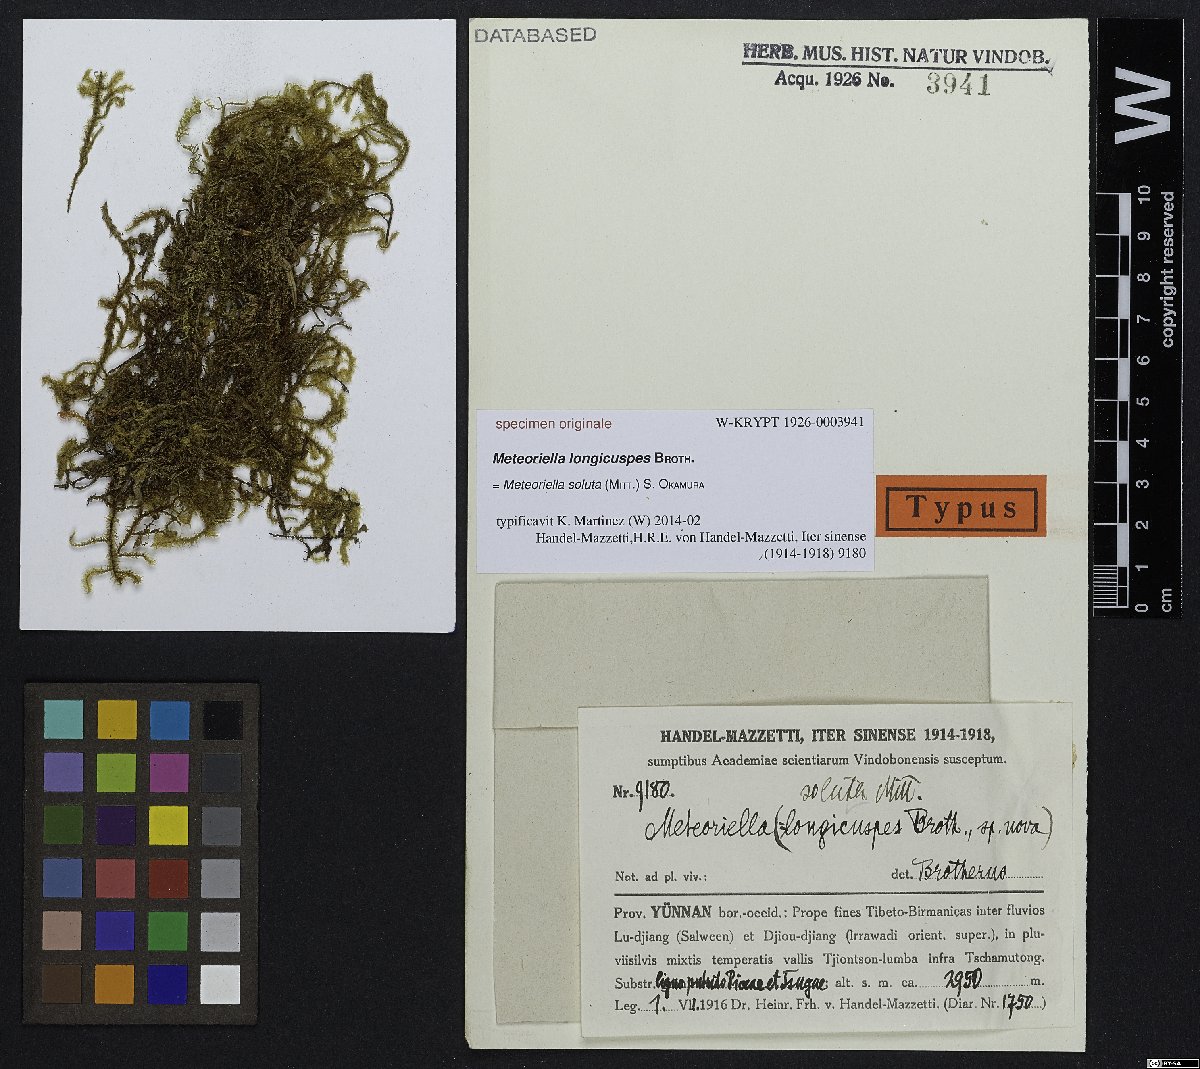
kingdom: Plantae
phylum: Bryophyta
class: Bryopsida
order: Hypnales
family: Pterobryaceae
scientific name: Pterobryaceae
